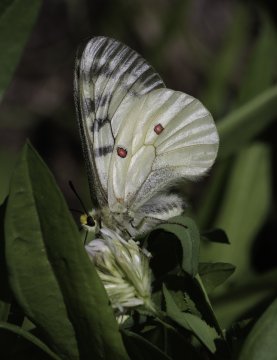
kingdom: Animalia
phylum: Arthropoda
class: Insecta
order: Lepidoptera
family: Papilionidae
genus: Parnassius
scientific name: Parnassius clodius
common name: Clodius Parnassian
